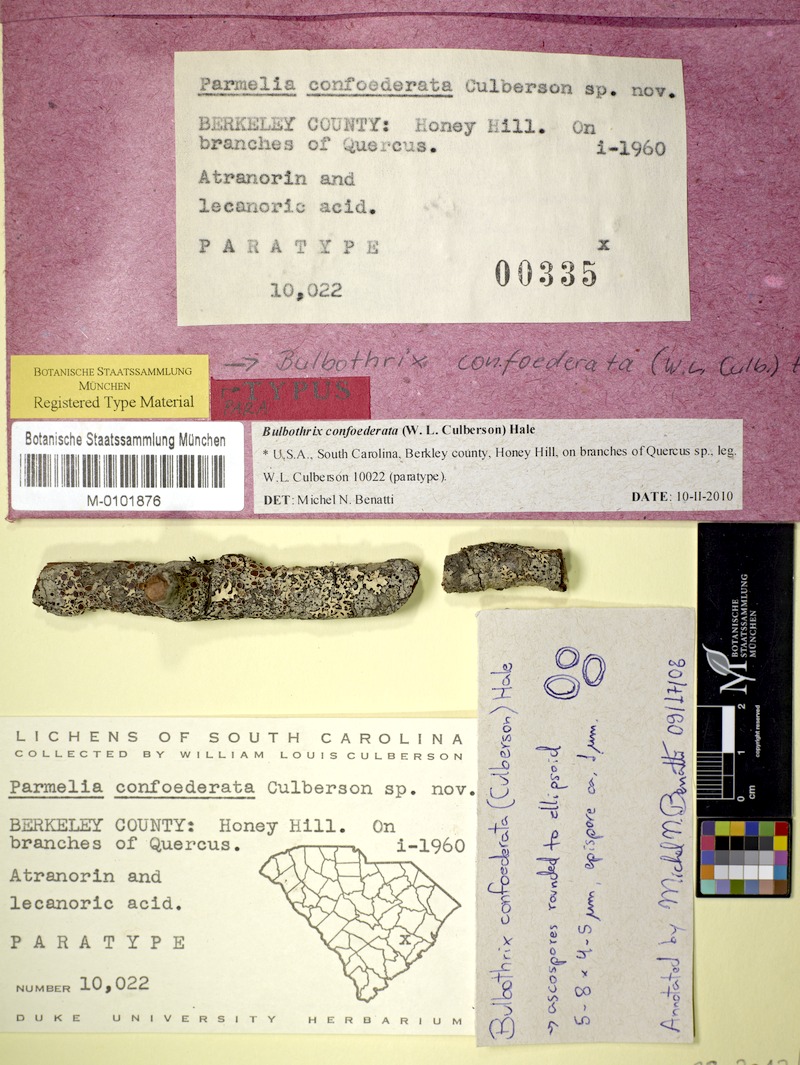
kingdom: Fungi
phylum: Ascomycota
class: Lecanoromycetes
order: Lecanorales
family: Parmeliaceae
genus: Bulbothrix
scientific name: Bulbothrix confoederata
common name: Smooth eyelash lichen
